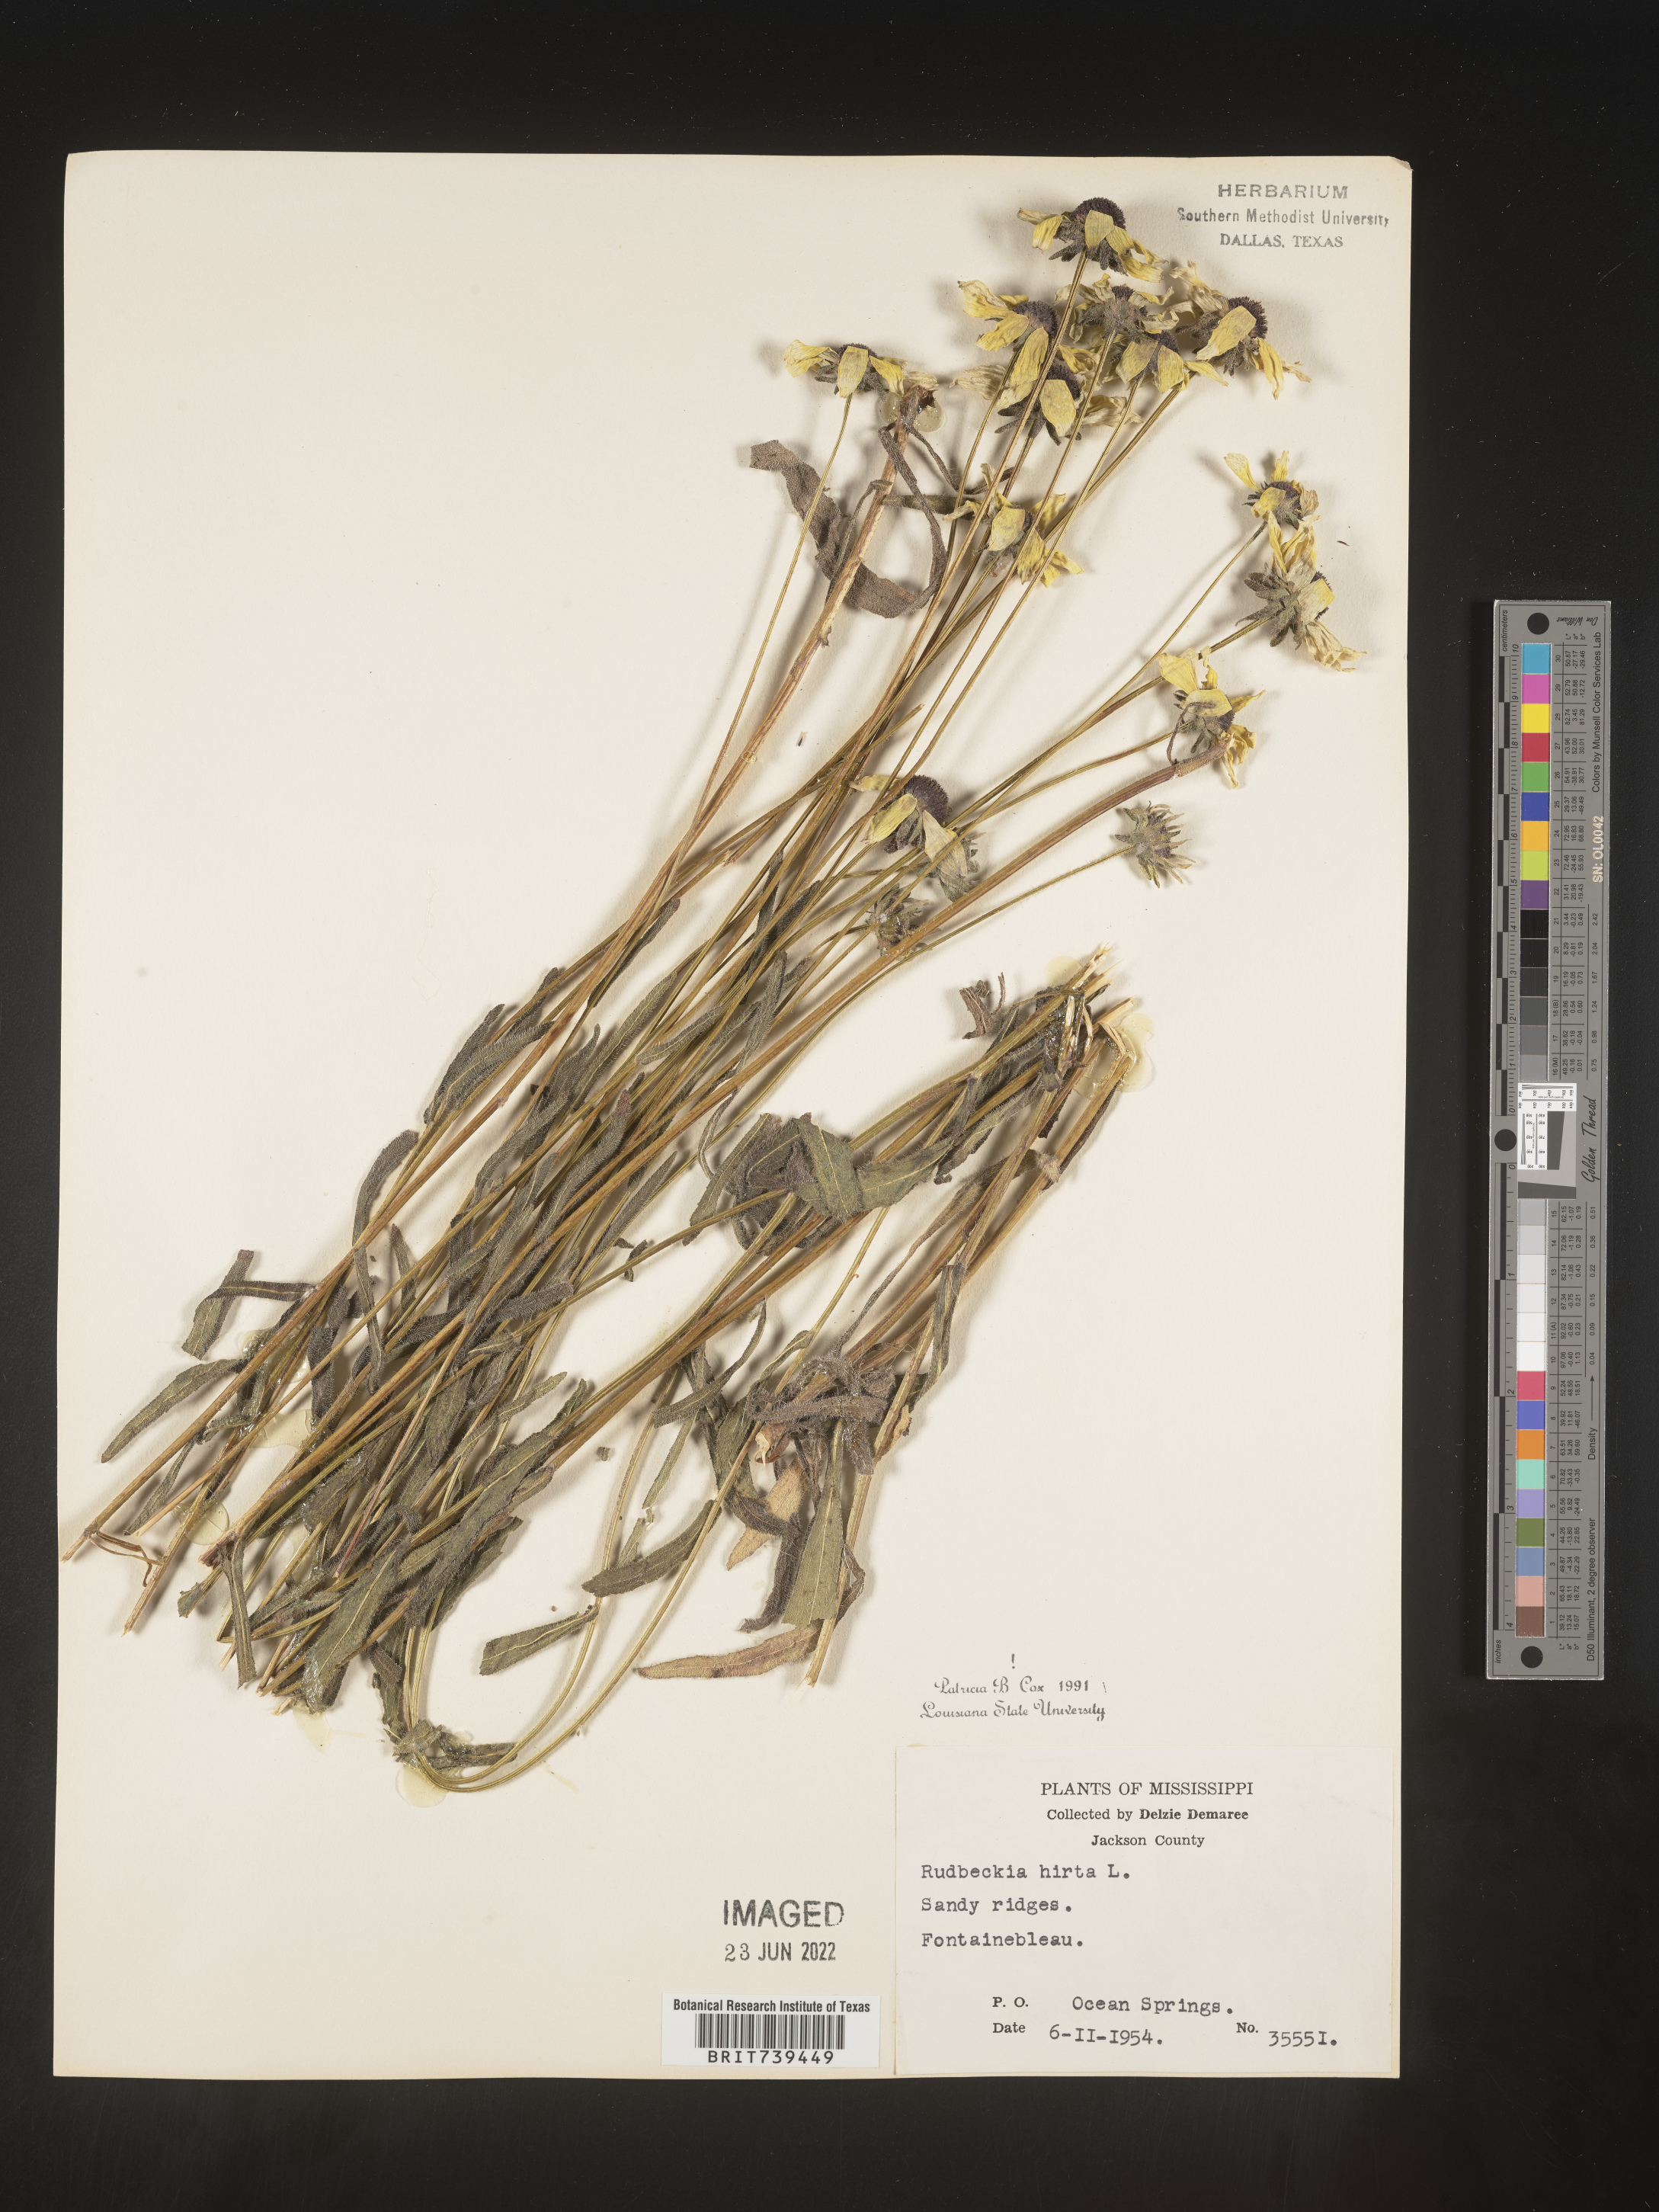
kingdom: Plantae
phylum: Tracheophyta
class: Magnoliopsida
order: Asterales
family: Asteraceae
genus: Rudbeckia
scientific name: Rudbeckia hirta
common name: Black-eyed-susan
